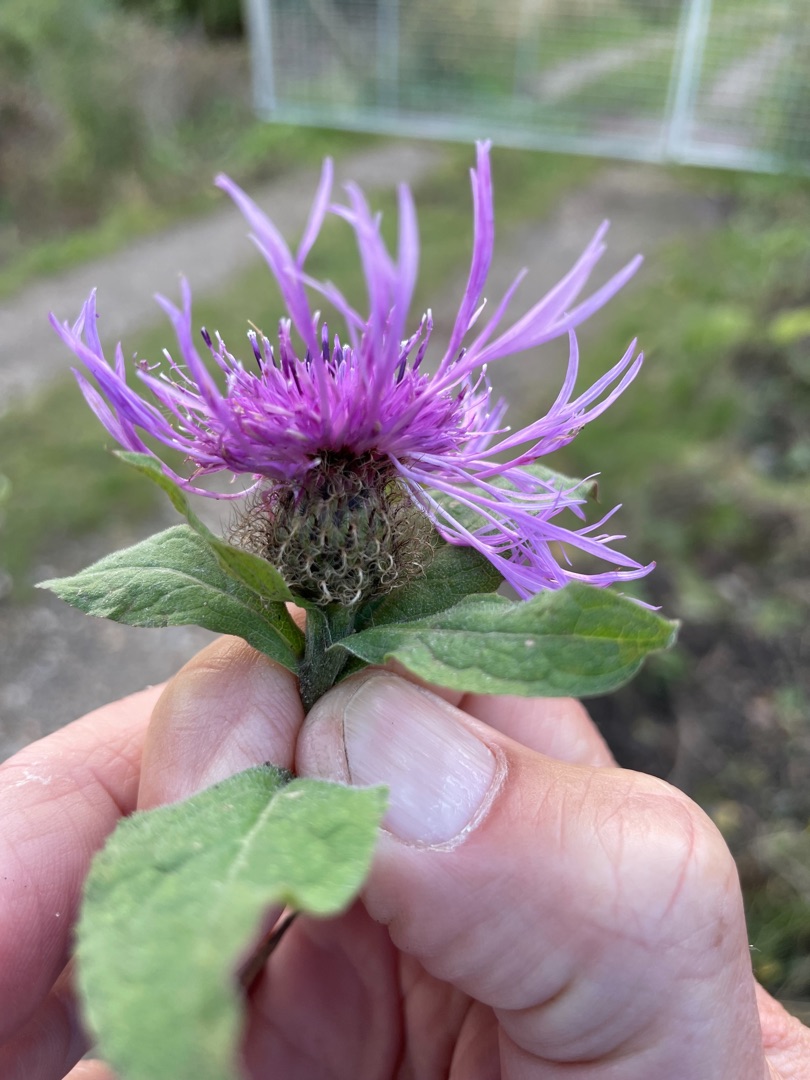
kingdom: Plantae
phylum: Tracheophyta
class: Magnoliopsida
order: Asterales
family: Asteraceae
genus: Centaurea
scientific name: Centaurea pseudophrygia
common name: Fjer-knopurt
